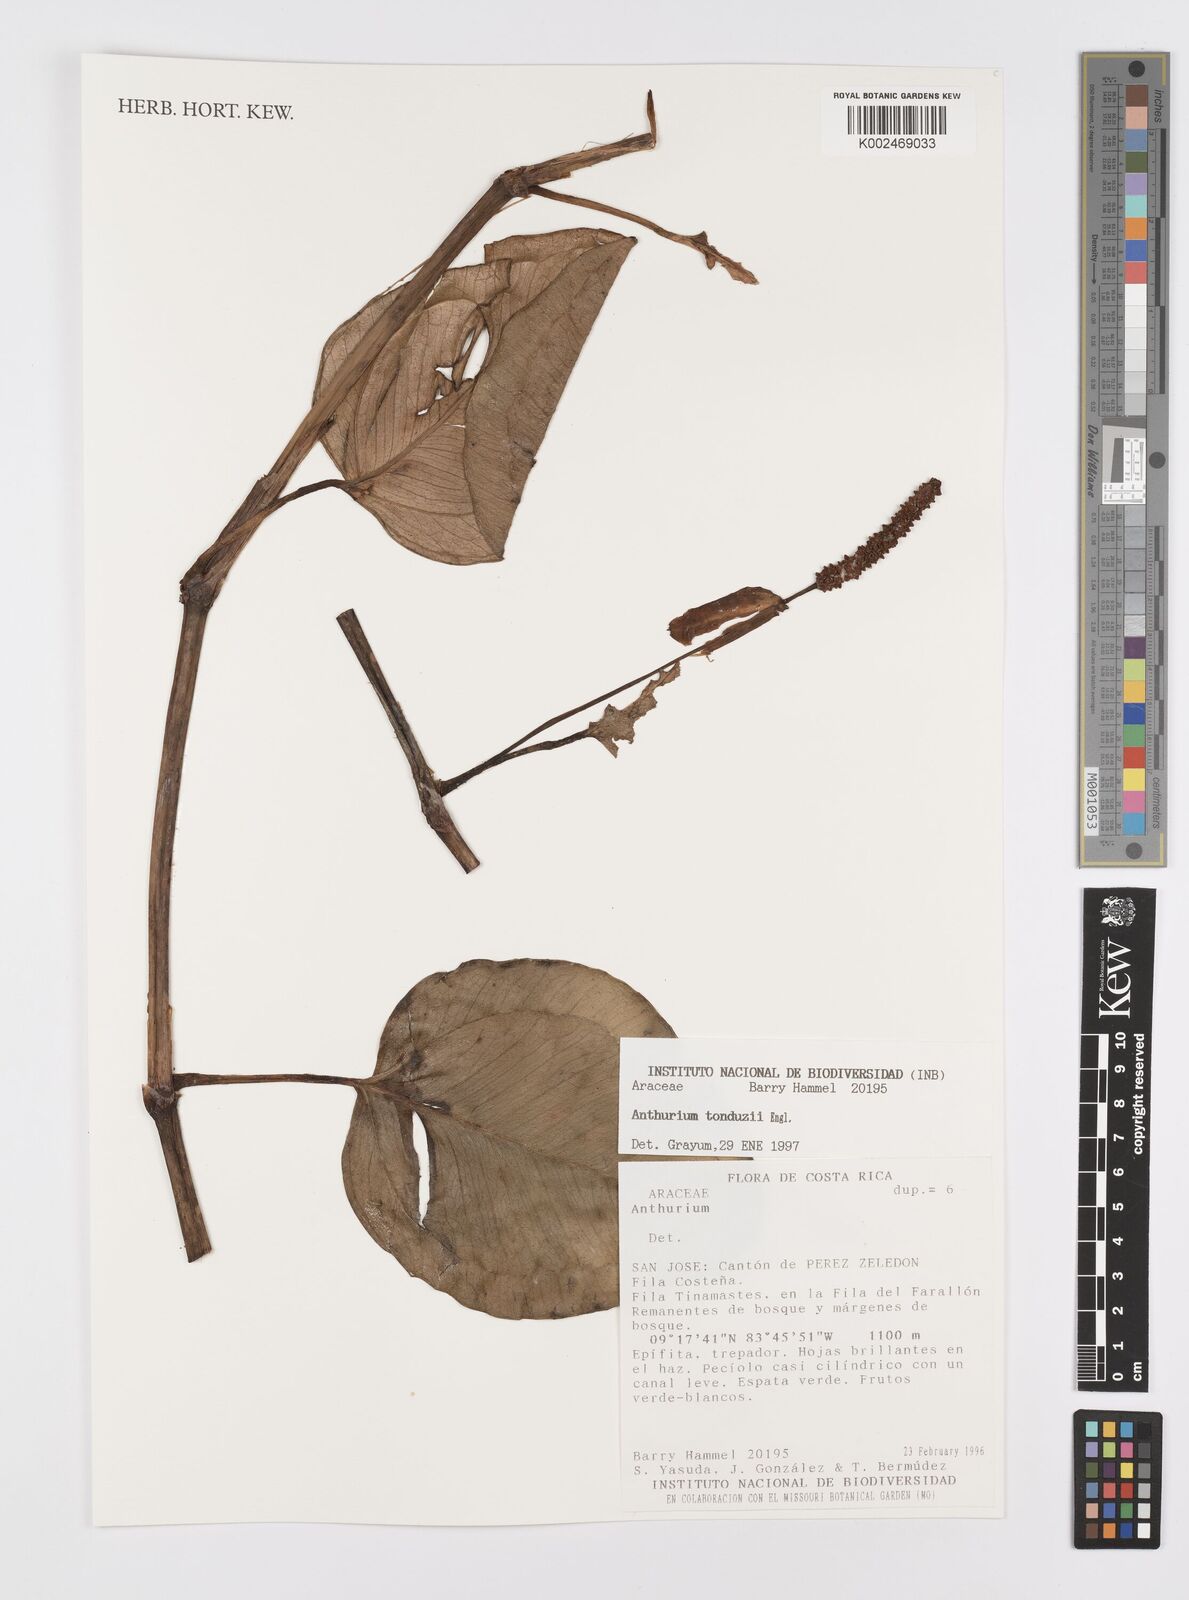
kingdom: Plantae
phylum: Tracheophyta
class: Liliopsida
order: Alismatales
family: Araceae
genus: Anthurium
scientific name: Anthurium tonduzii
